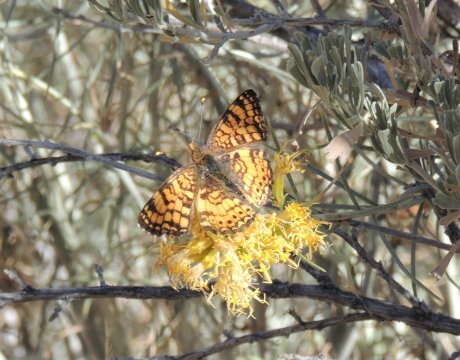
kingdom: Animalia
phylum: Arthropoda
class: Insecta
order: Lepidoptera
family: Nymphalidae
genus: Eresia
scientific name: Eresia aveyrona
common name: Mylitta Crescent
